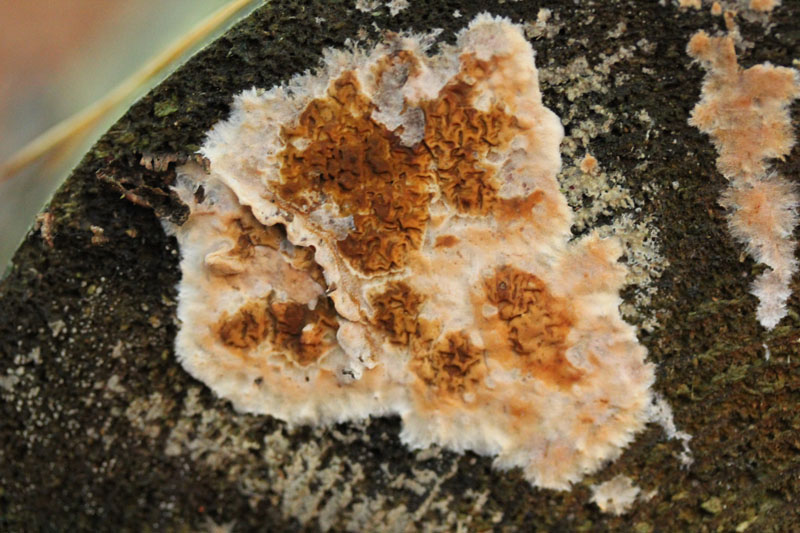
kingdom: Fungi
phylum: Basidiomycota
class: Agaricomycetes
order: Boletales
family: Serpulaceae
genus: Serpula
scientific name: Serpula himantioides
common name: tyndkødet hussvamp
